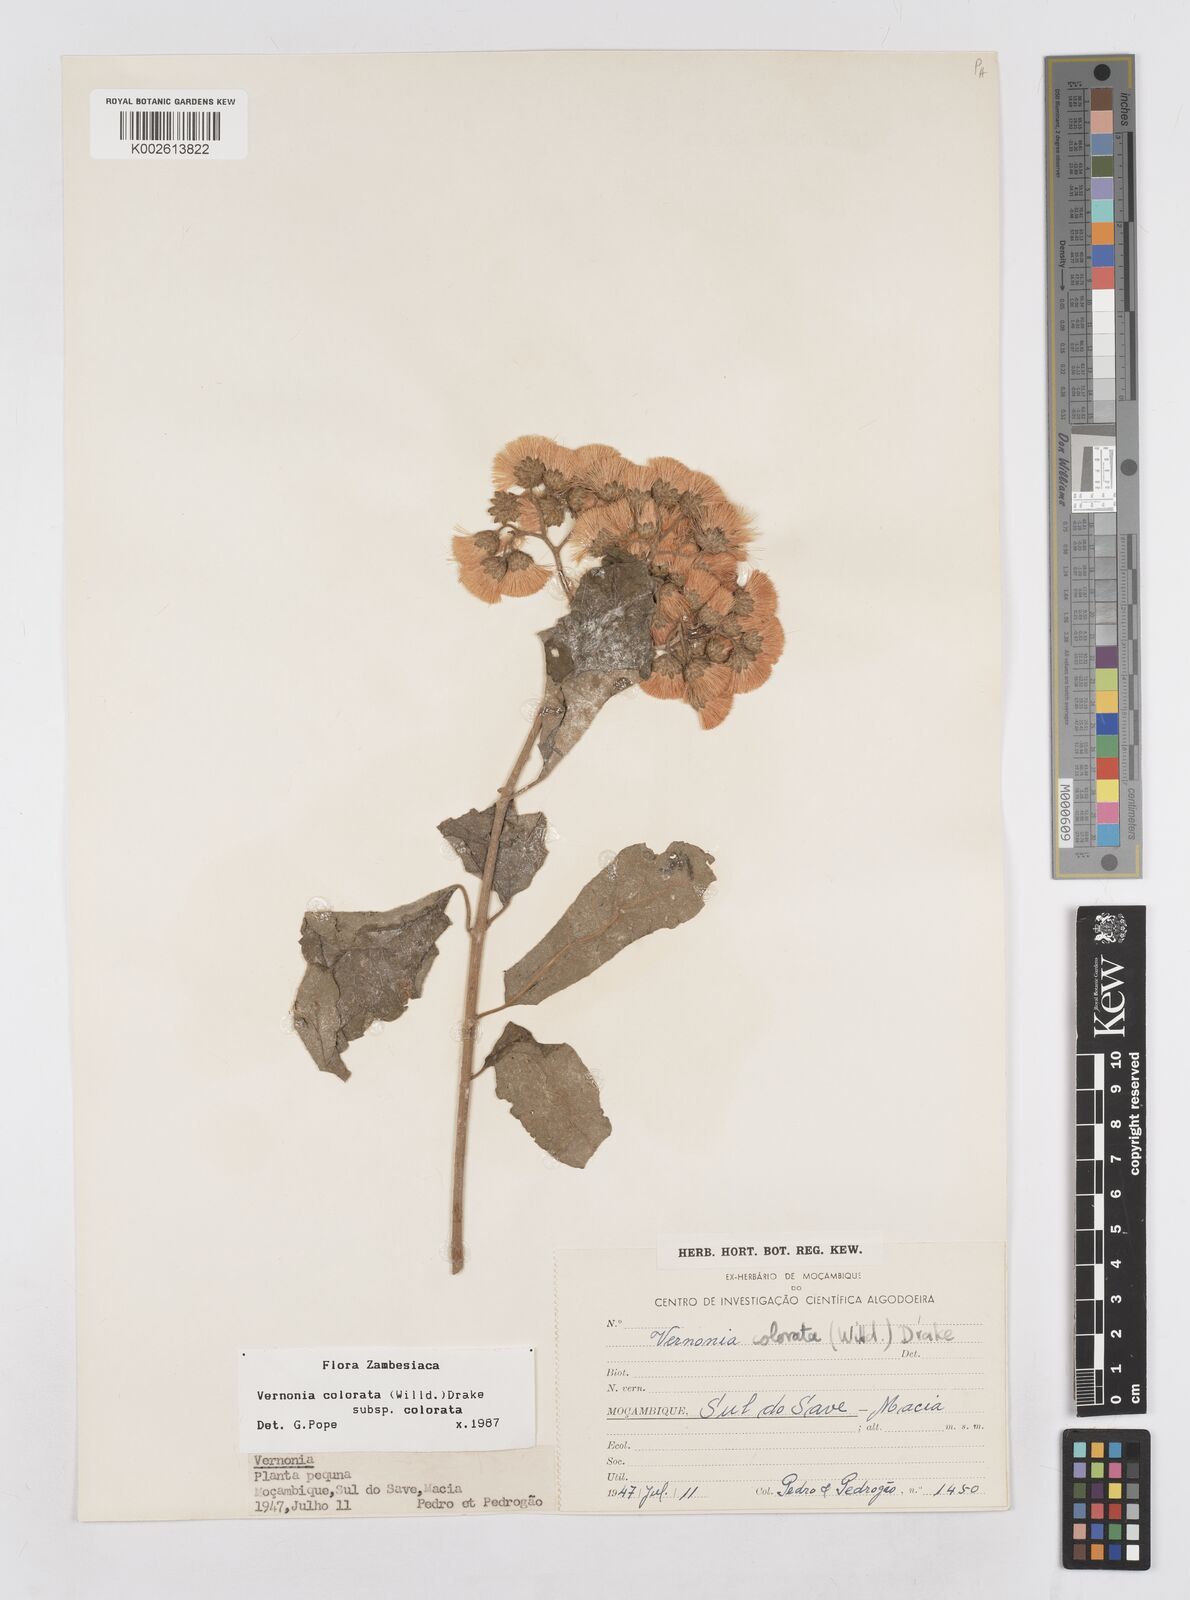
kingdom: Plantae
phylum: Tracheophyta
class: Magnoliopsida
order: Asterales
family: Asteraceae
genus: Vernonia
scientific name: Vernonia colorata
